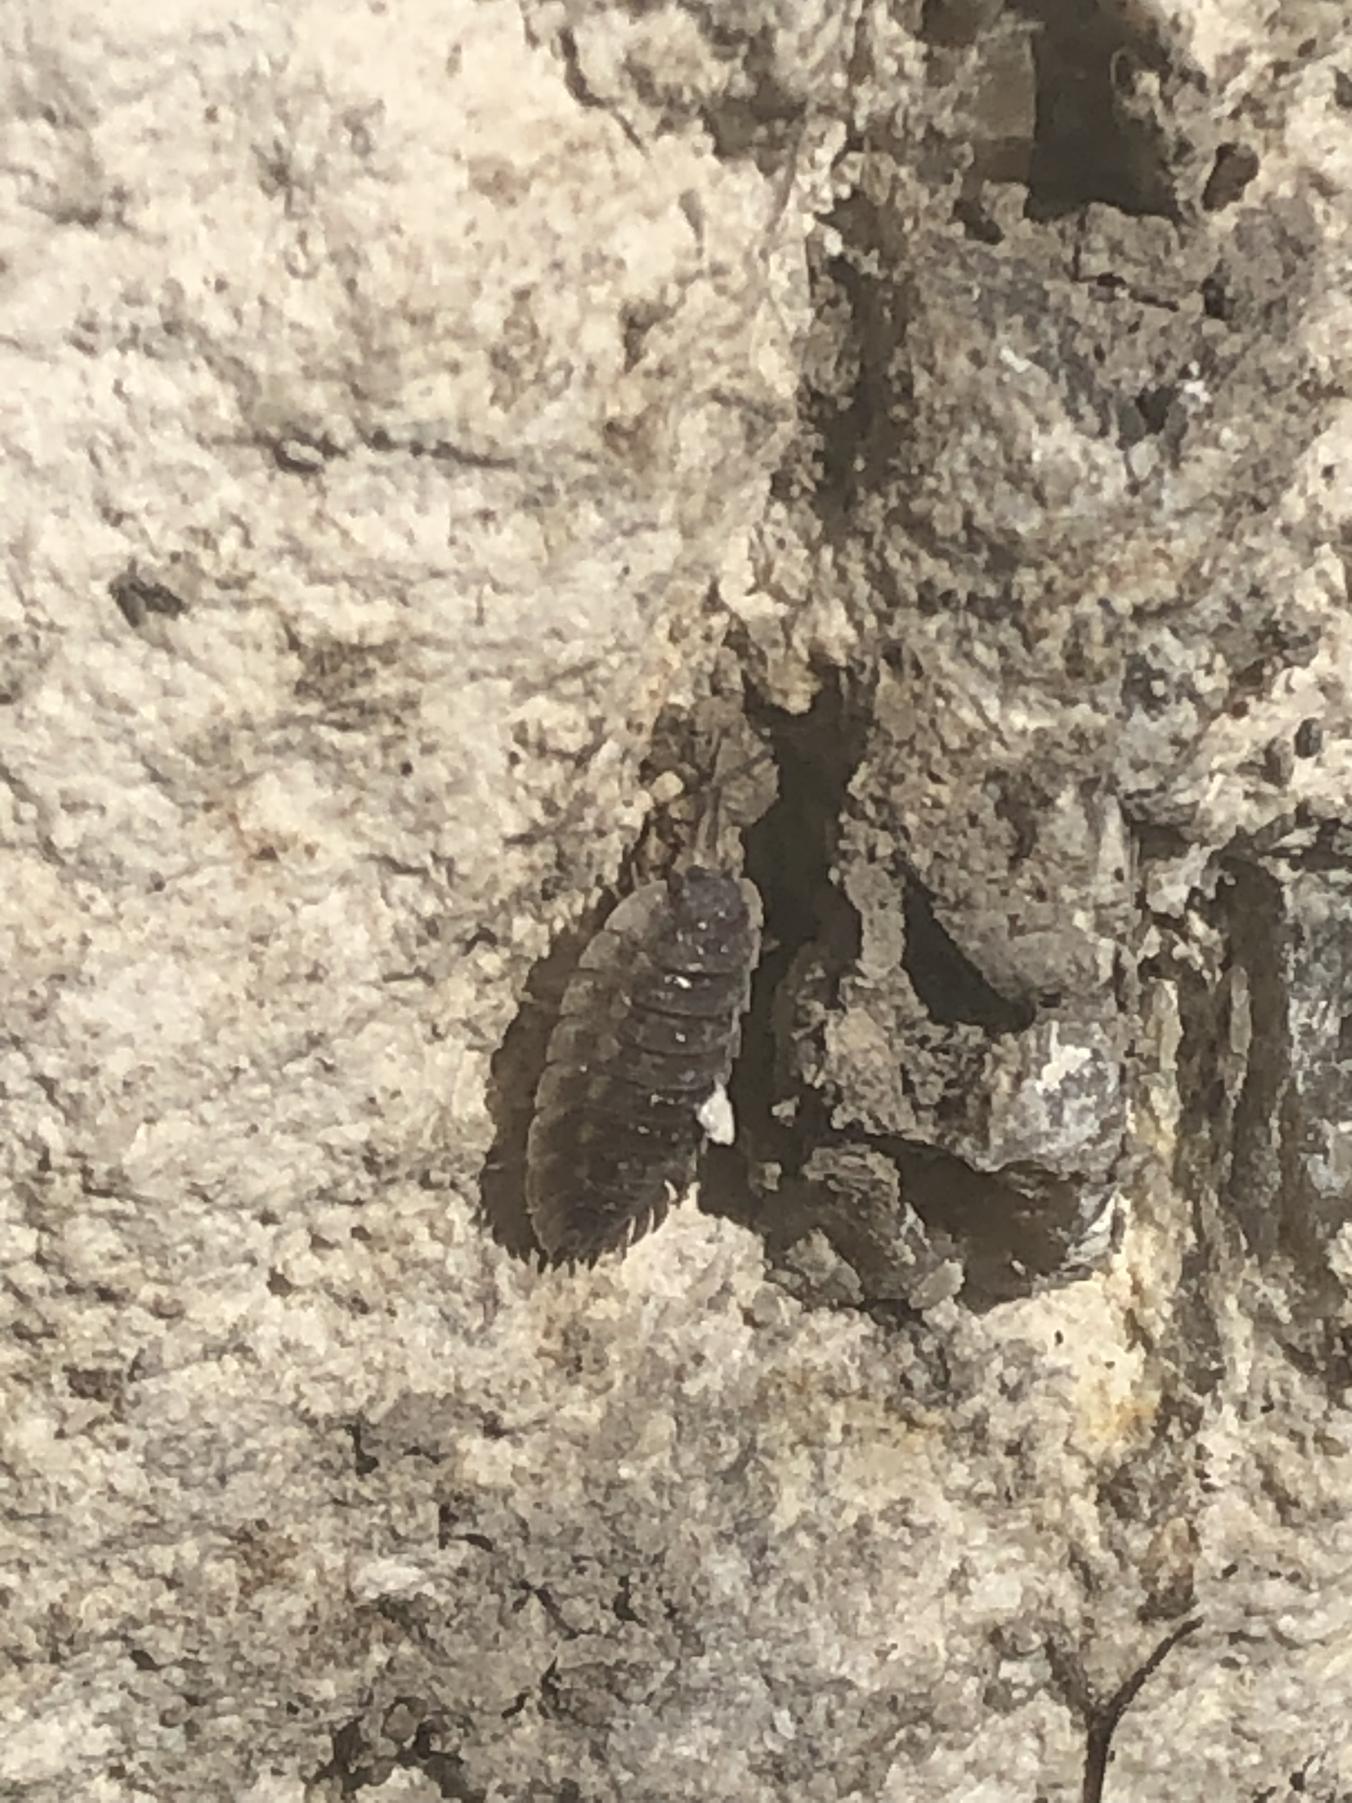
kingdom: Animalia
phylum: Arthropoda
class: Malacostraca
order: Isopoda
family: Oniscidae
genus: Oniscus
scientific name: Oniscus asellus
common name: Glat bænkebider
